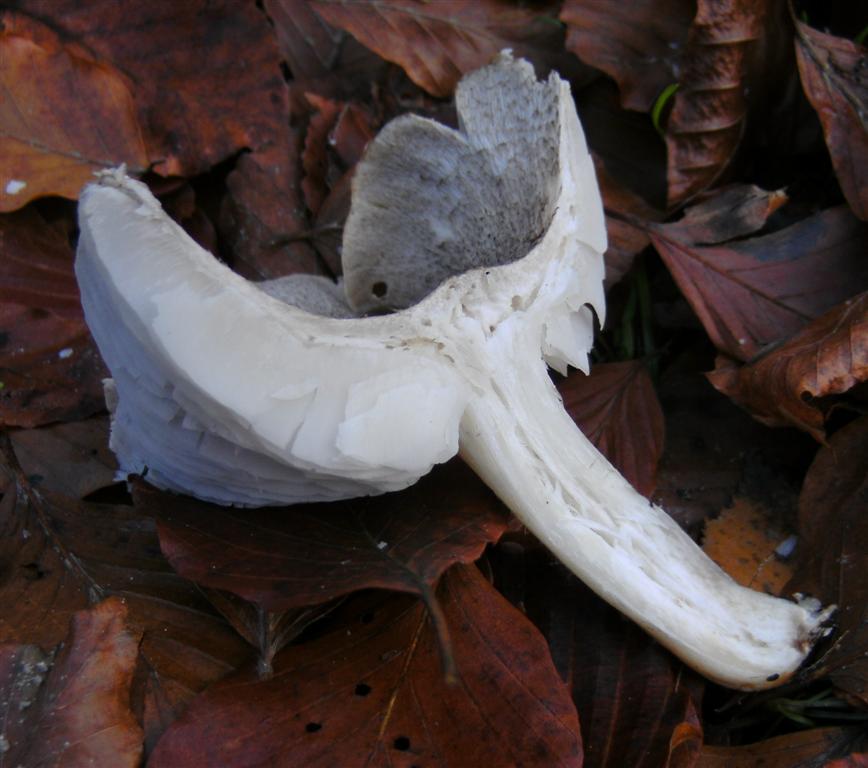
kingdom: Fungi
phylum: Basidiomycota
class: Agaricomycetes
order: Agaricales
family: Tricholomataceae
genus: Tricholoma
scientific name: Tricholoma scalpturatum
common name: gulplettet ridderhat
